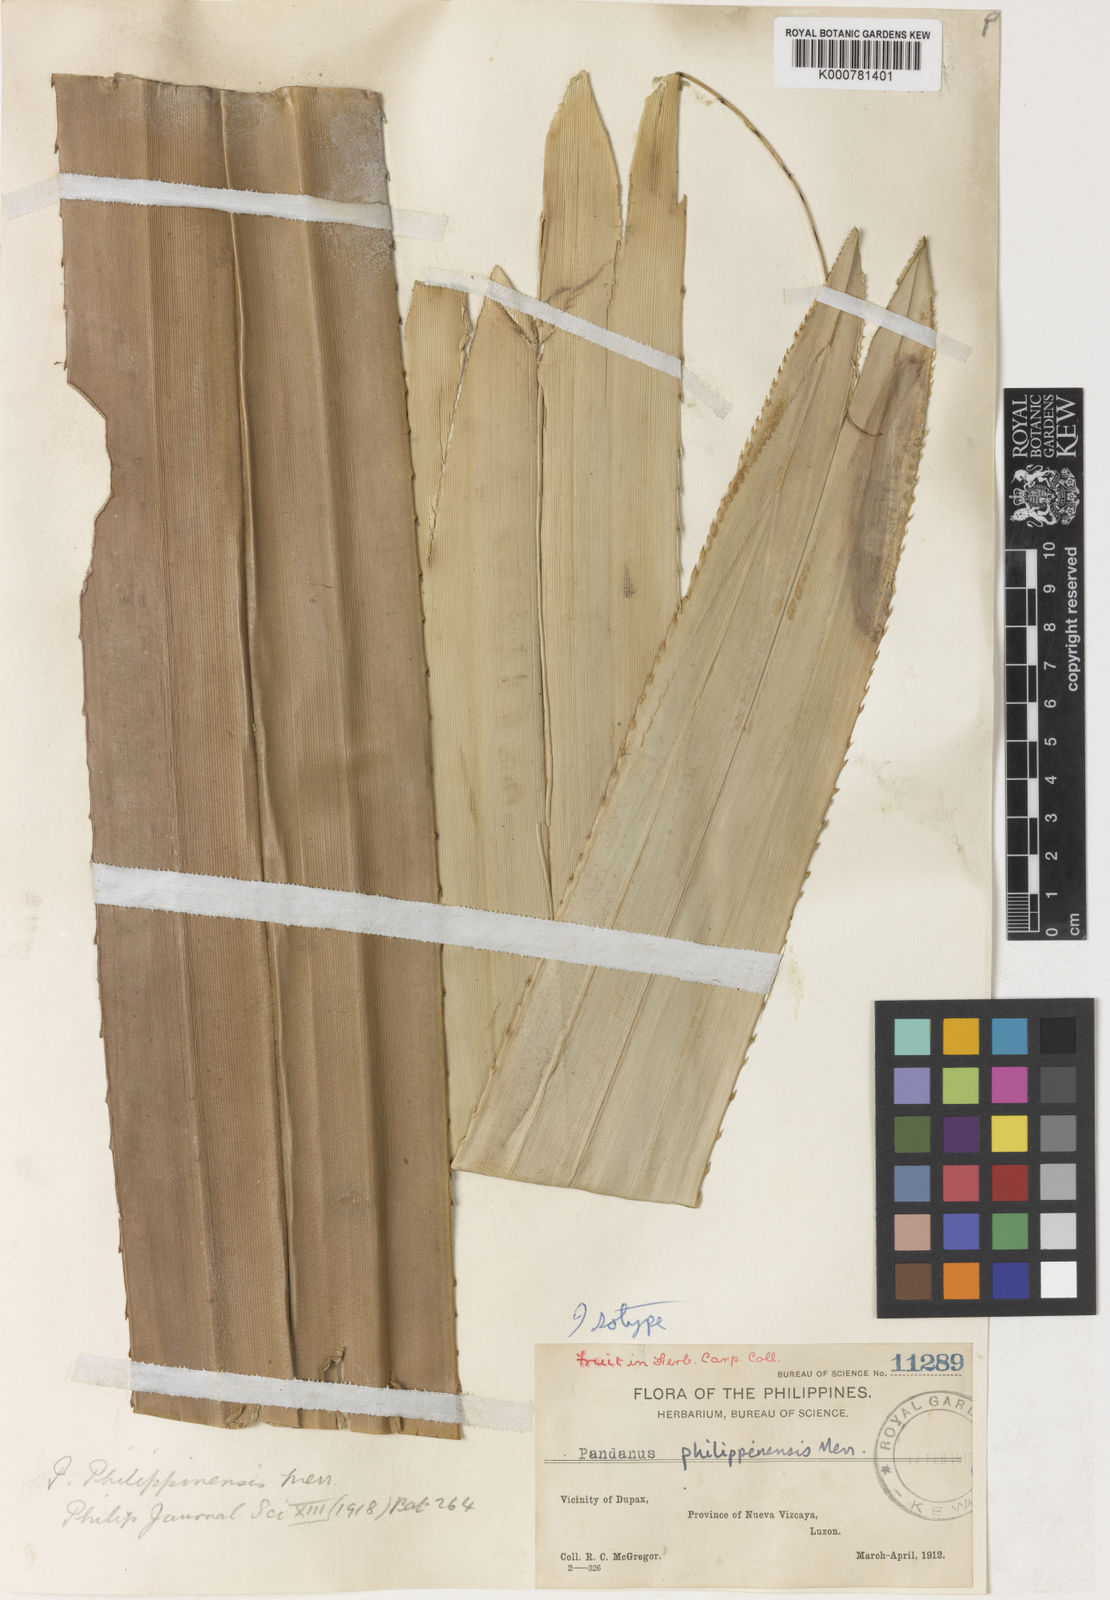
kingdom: Plantae
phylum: Tracheophyta
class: Liliopsida
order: Pandanales
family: Pandanaceae
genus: Pandanus
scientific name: Pandanus
